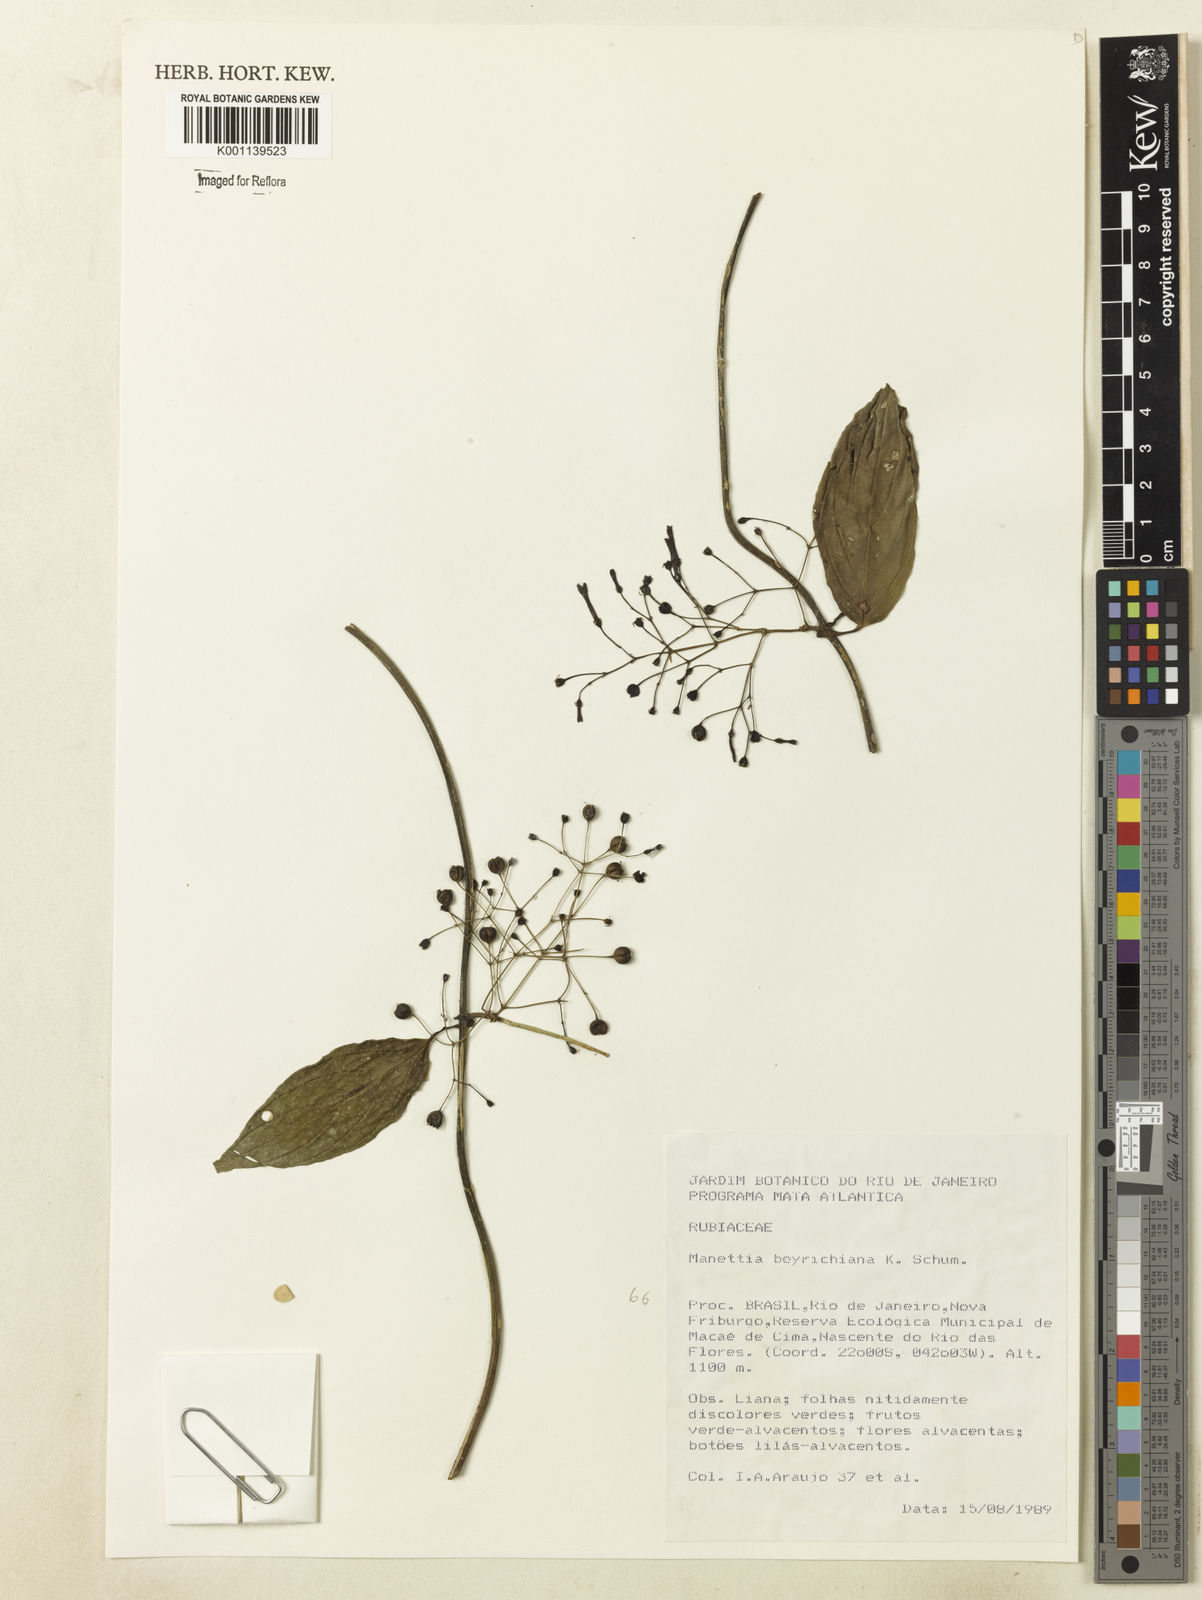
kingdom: Plantae
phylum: Tracheophyta
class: Magnoliopsida
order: Gentianales
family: Rubiaceae
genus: Manettia
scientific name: Manettia beyrichiana
